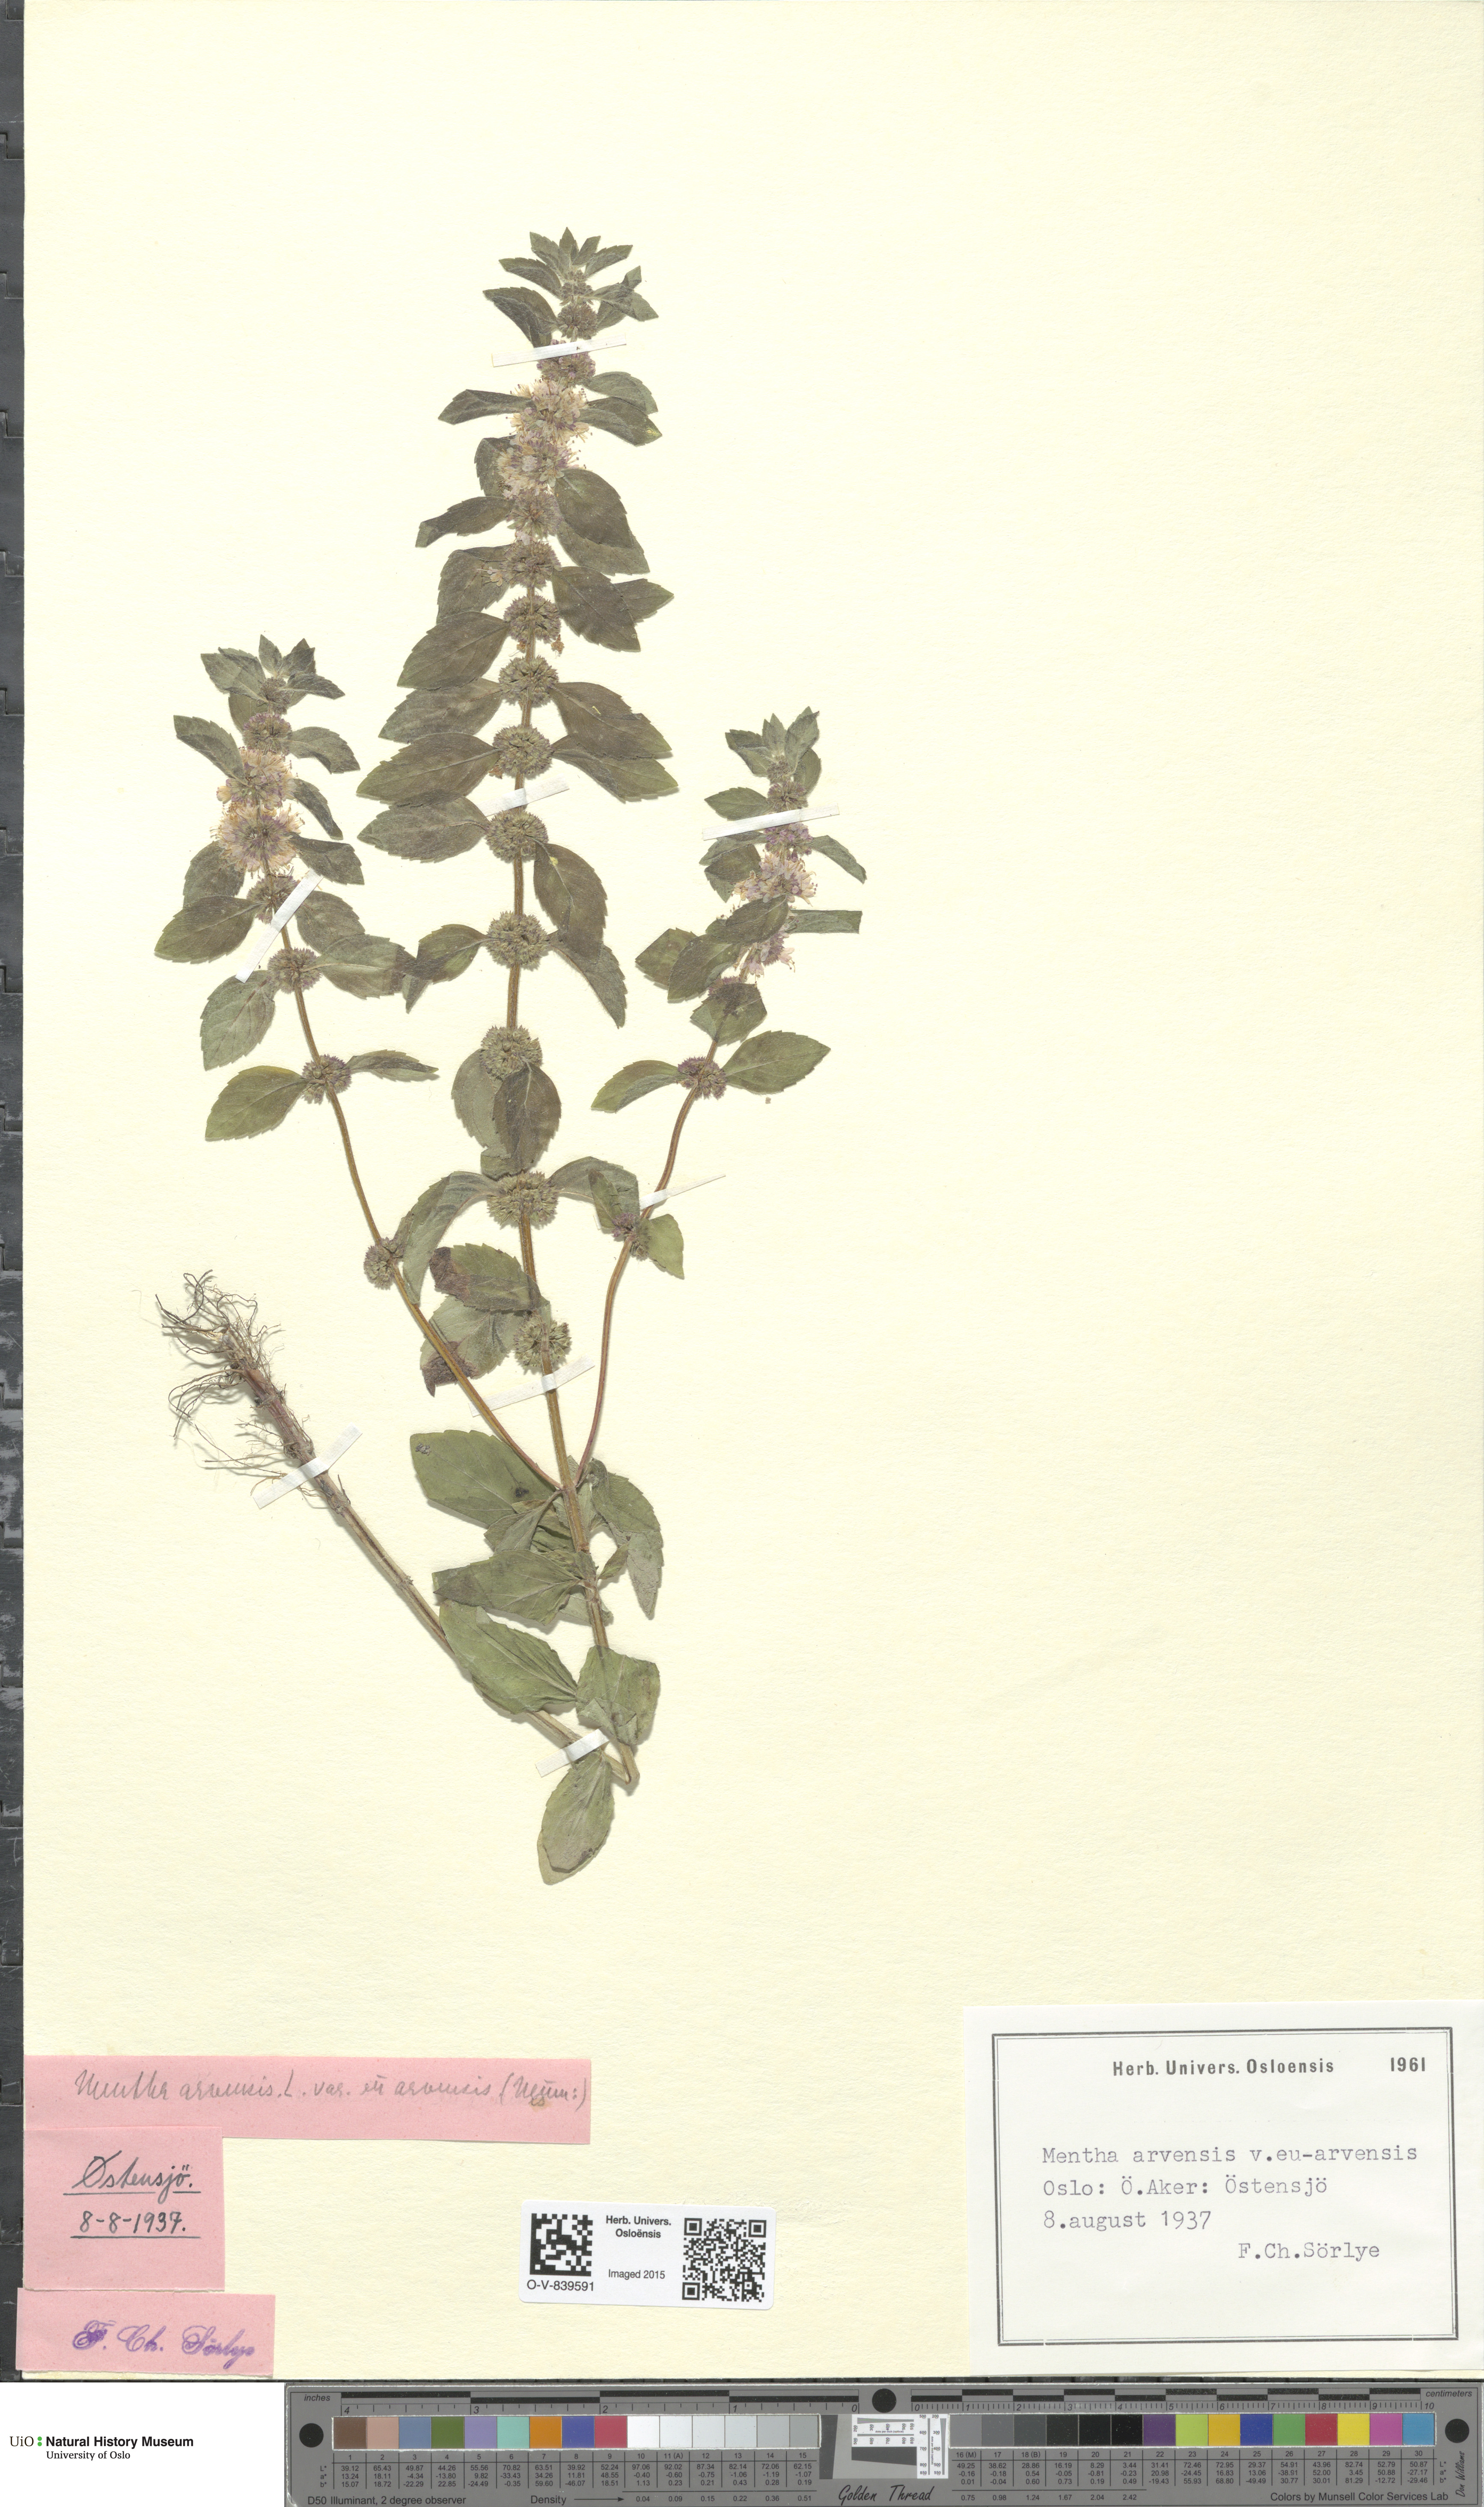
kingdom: Plantae
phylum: Tracheophyta
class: Magnoliopsida
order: Lamiales
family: Lamiaceae
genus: Mentha
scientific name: Mentha arvensis
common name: Corn mint
